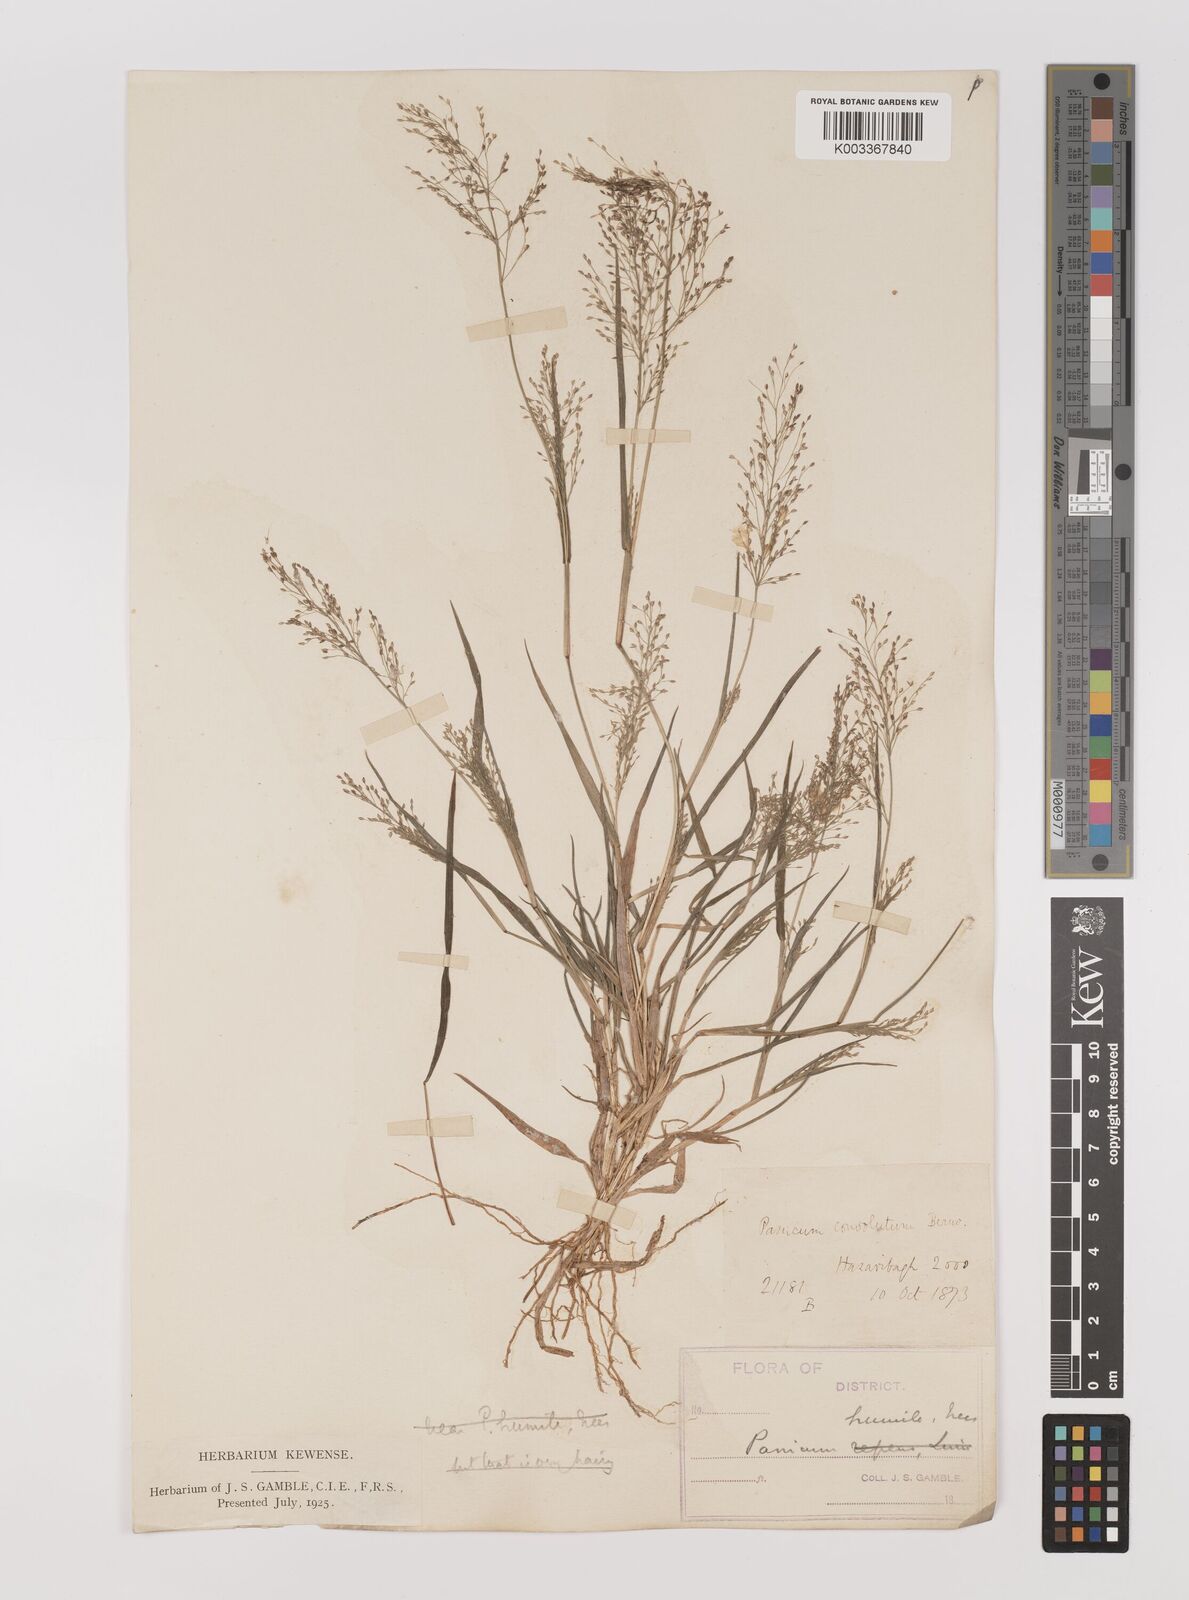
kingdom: Plantae
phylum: Tracheophyta
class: Liliopsida
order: Poales
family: Poaceae
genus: Panicum
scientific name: Panicum humile
